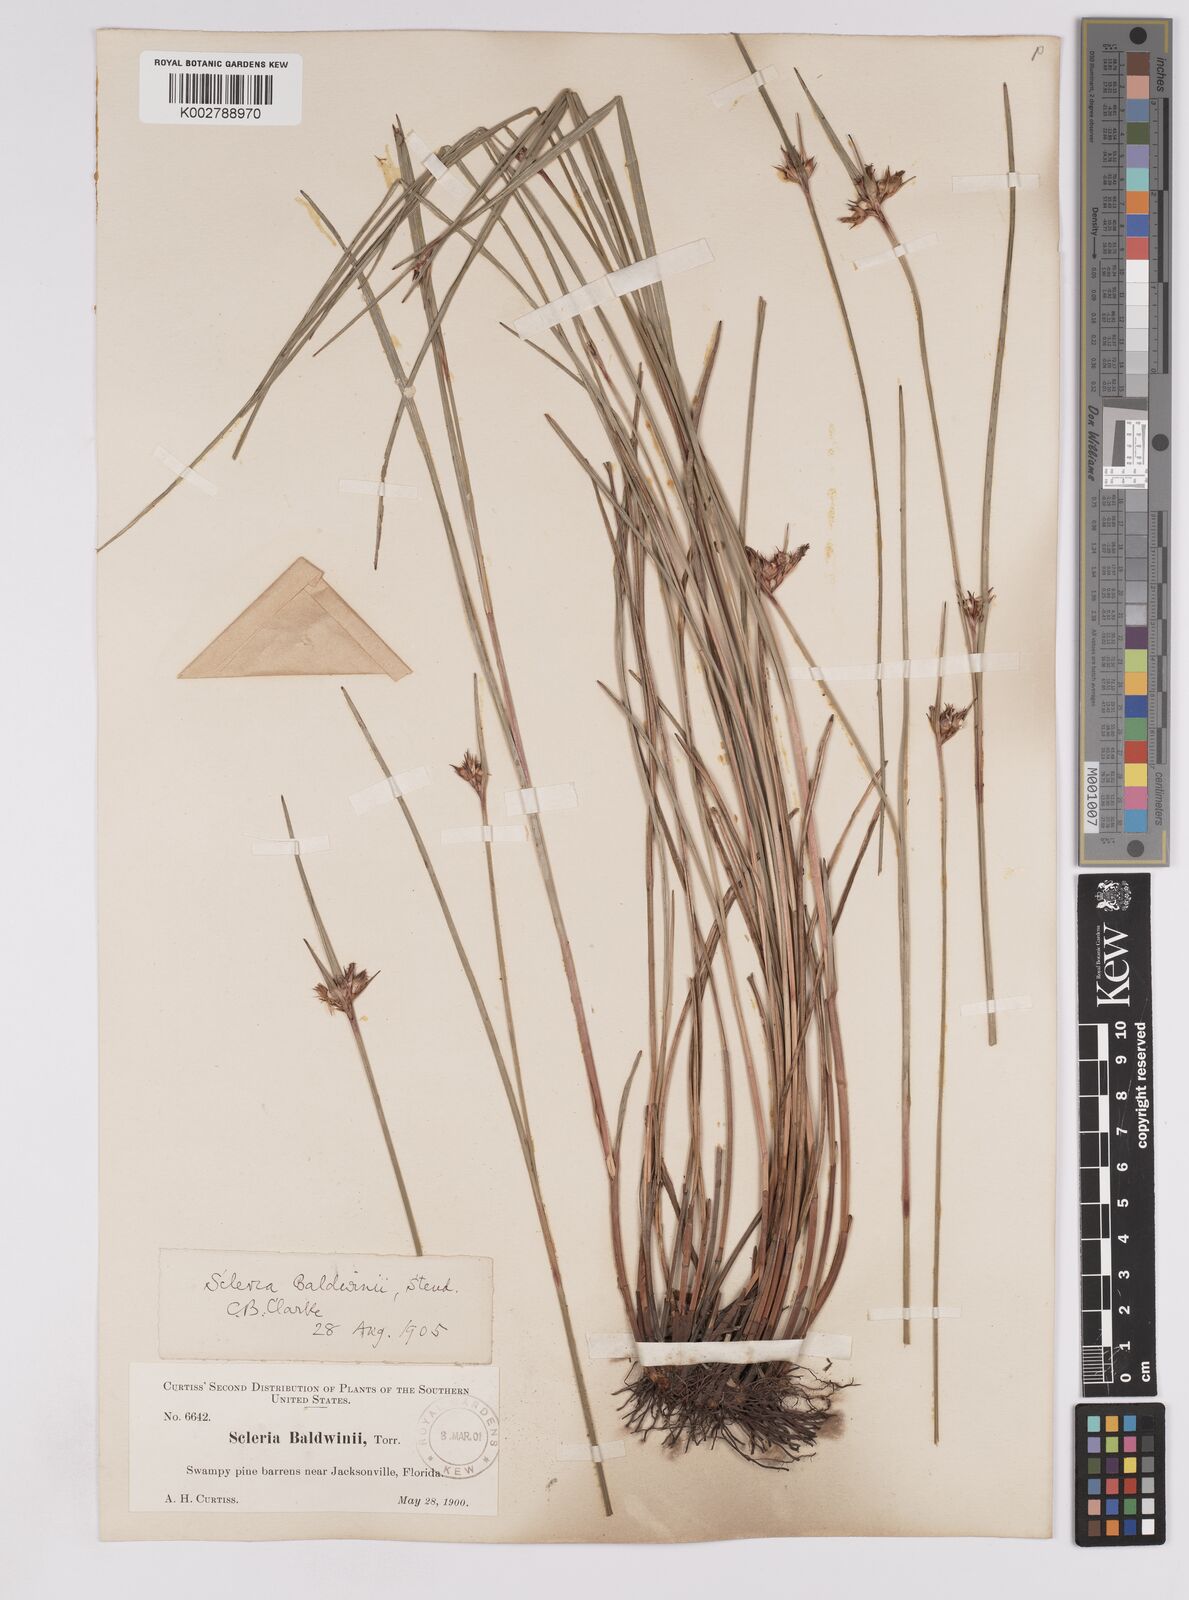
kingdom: Plantae
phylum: Tracheophyta
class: Liliopsida
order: Poales
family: Cyperaceae
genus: Scleria
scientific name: Scleria baldwinii
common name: Baldwin's nutrush
